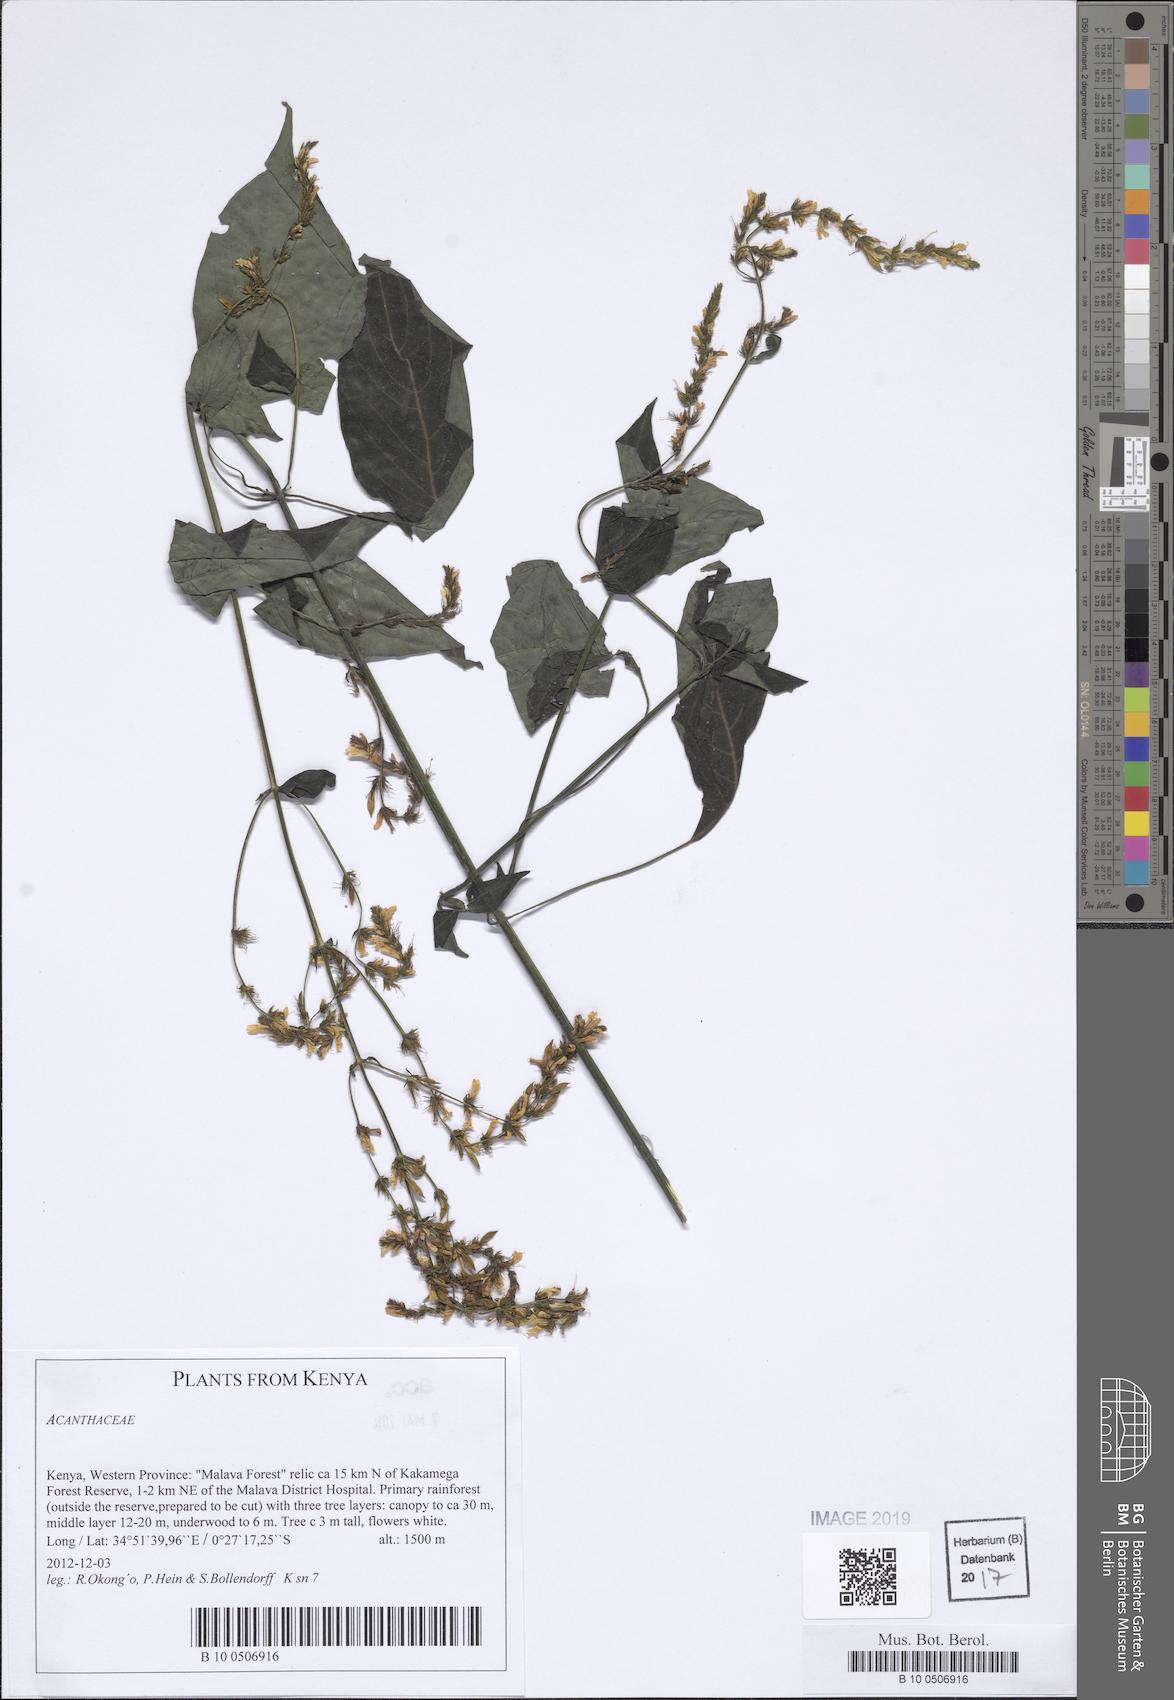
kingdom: Plantae
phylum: Tracheophyta
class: Magnoliopsida
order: Lamiales
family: Acanthaceae
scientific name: Acanthaceae
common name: Acanthaceae
